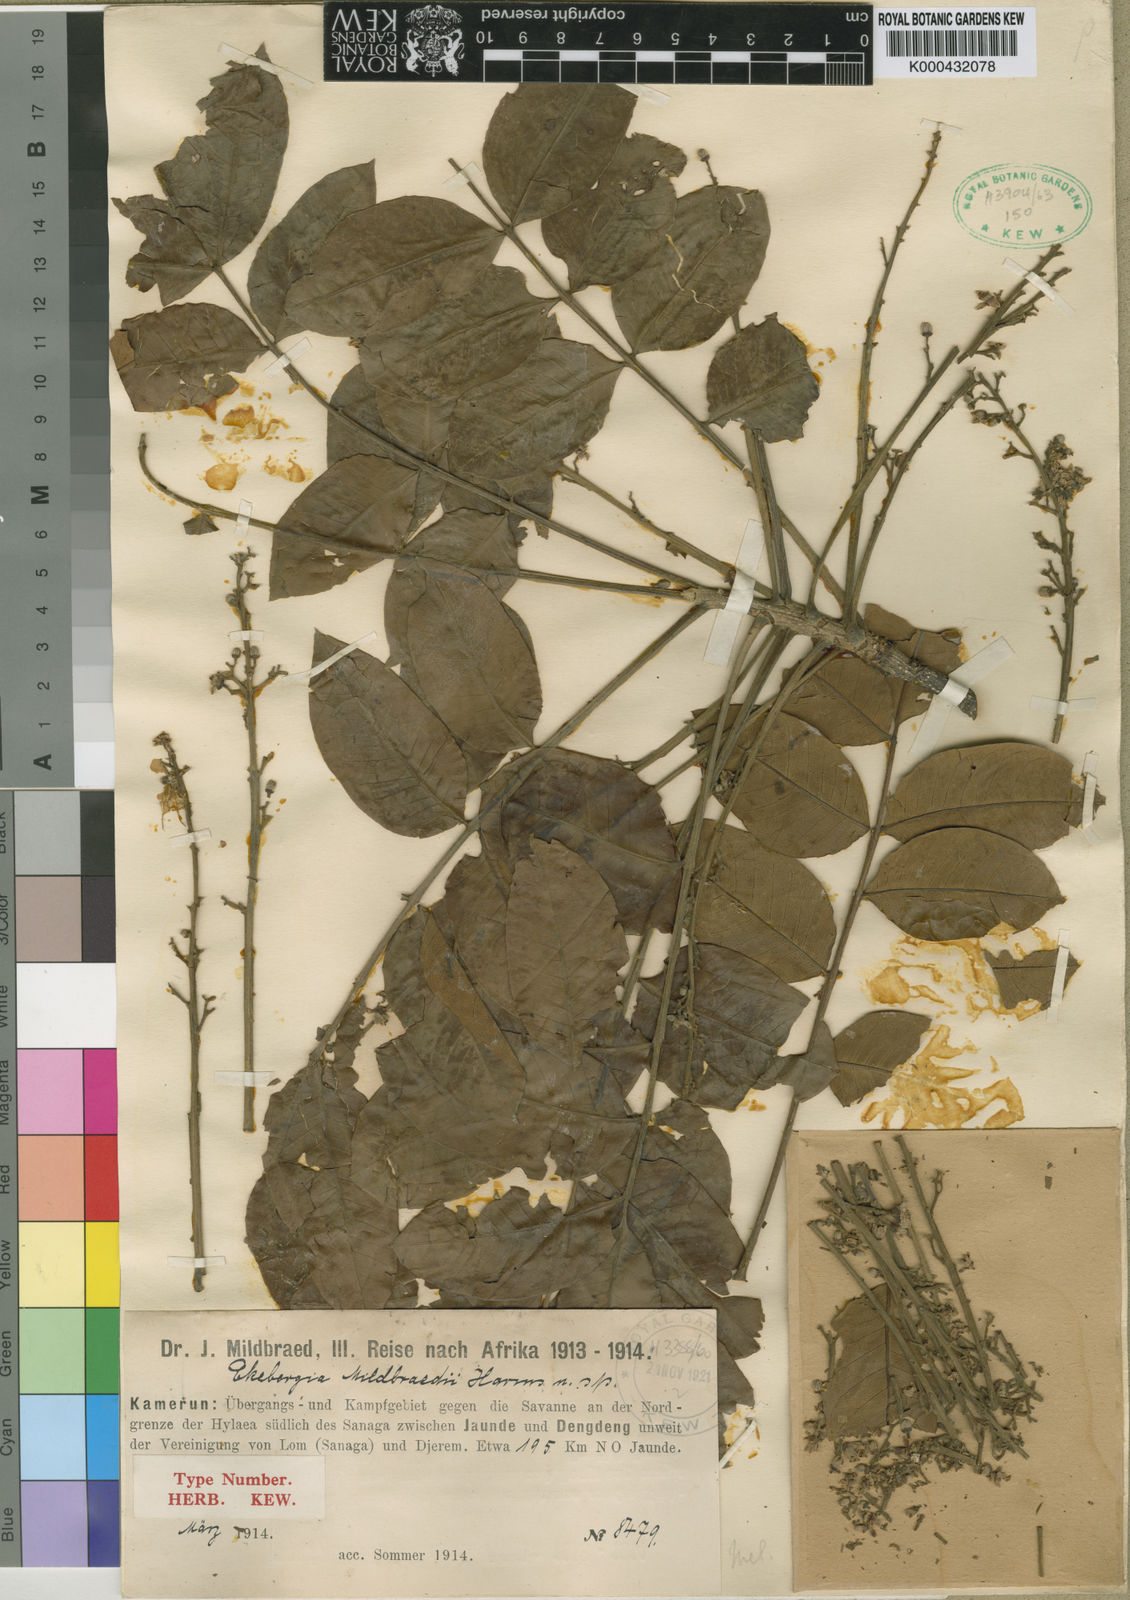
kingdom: Plantae
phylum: Tracheophyta
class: Magnoliopsida
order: Sapindales
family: Meliaceae
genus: Ekebergia
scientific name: Ekebergia capensis
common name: Cape-ash
